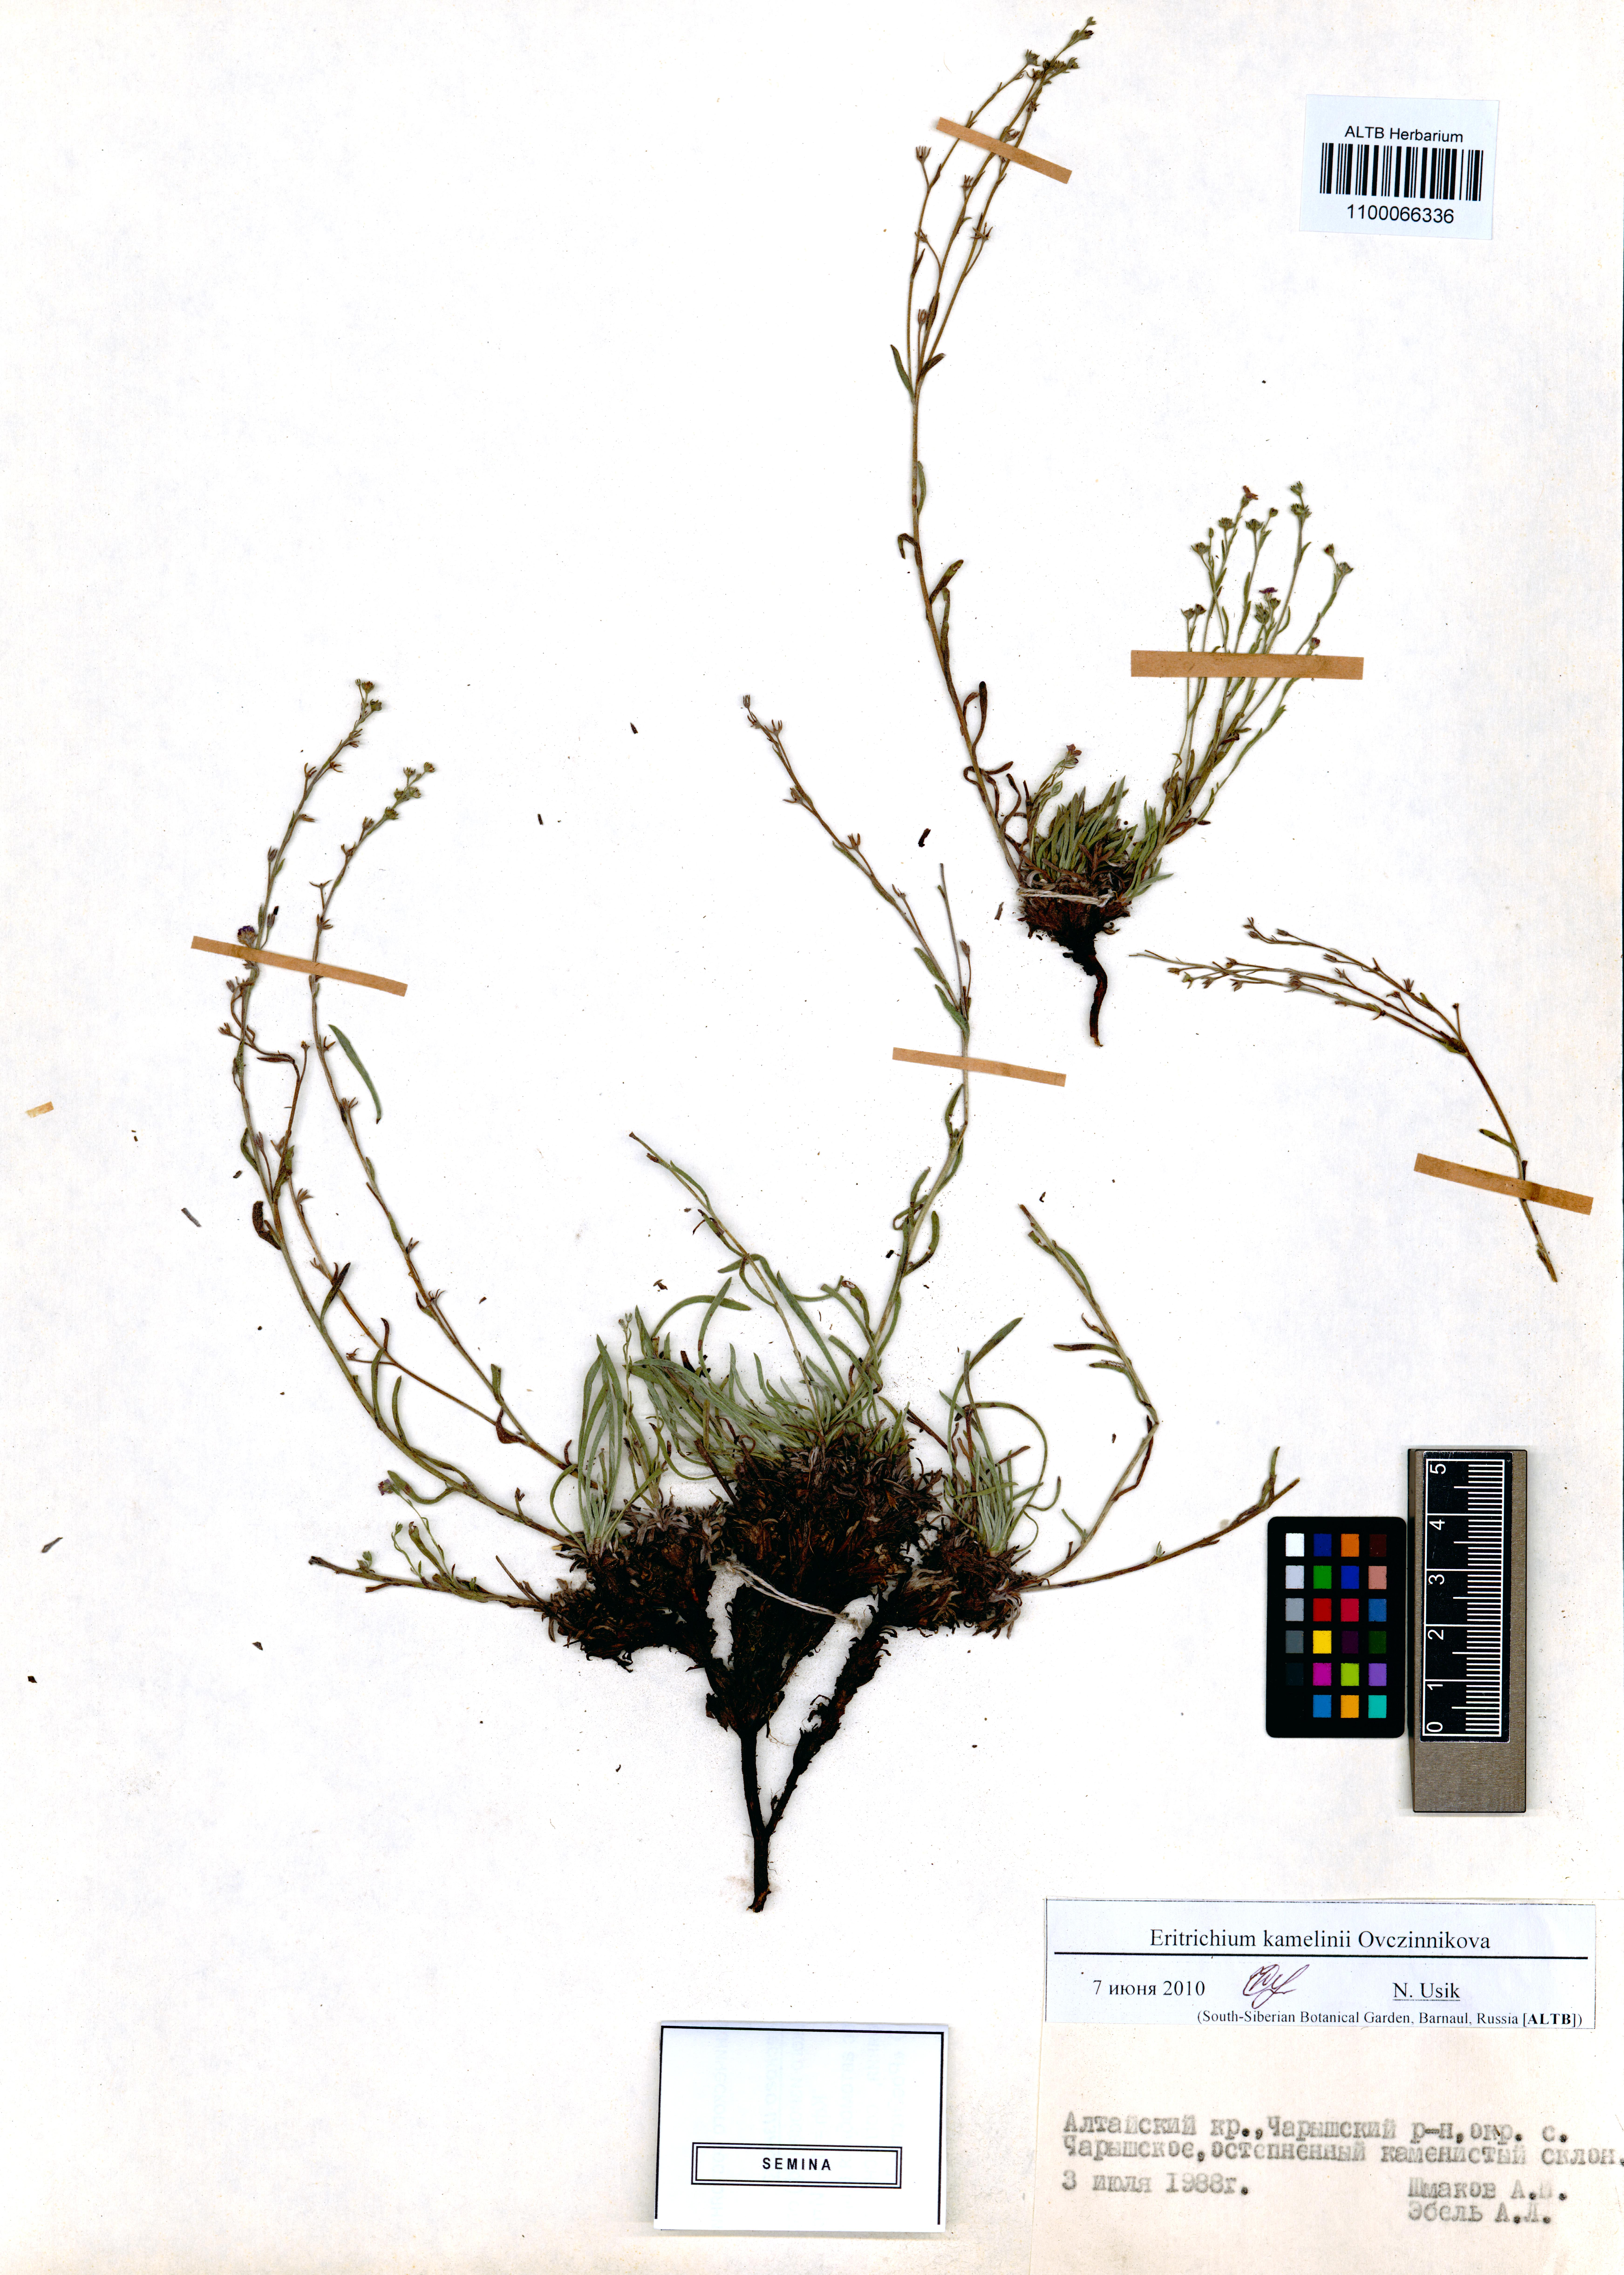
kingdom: Plantae
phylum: Tracheophyta
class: Magnoliopsida
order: Boraginales
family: Boraginaceae
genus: Eritrichium
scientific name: Eritrichium kamelinii
